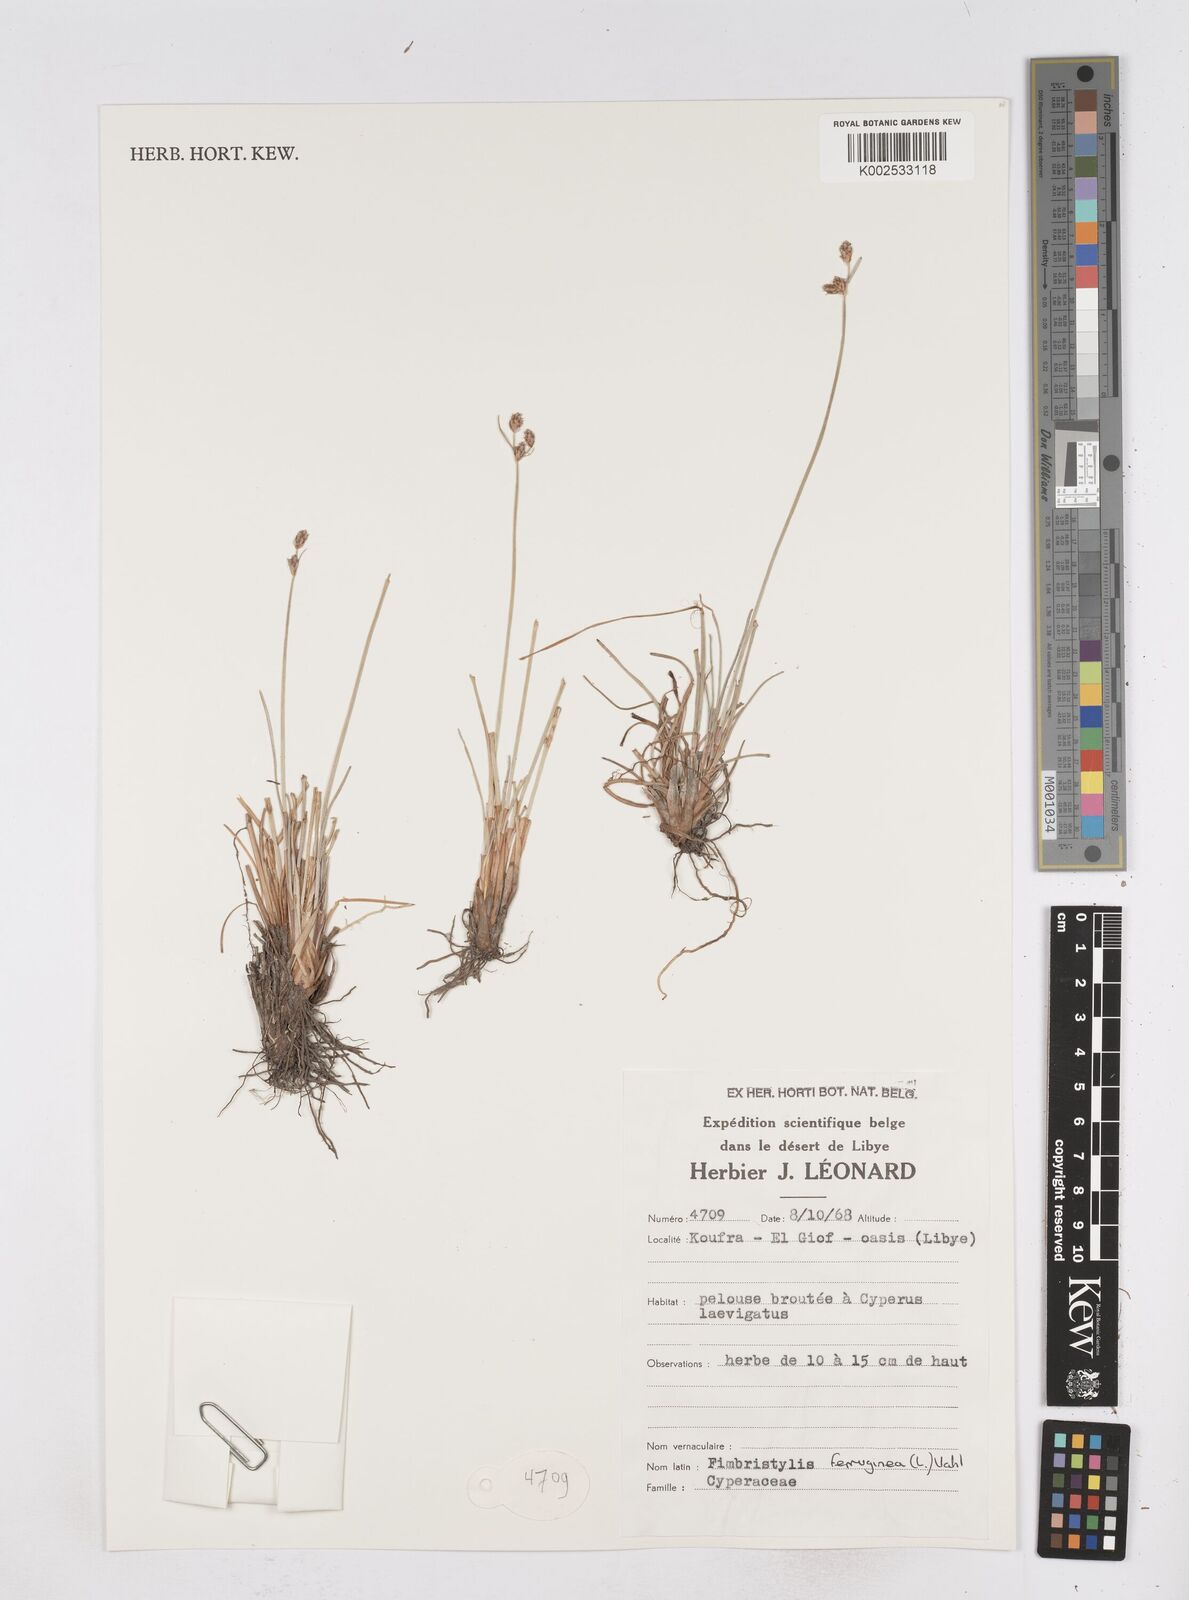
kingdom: Plantae
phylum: Tracheophyta
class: Liliopsida
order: Poales
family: Cyperaceae
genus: Fimbristylis
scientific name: Fimbristylis ferruginea
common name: West indian fimbry
